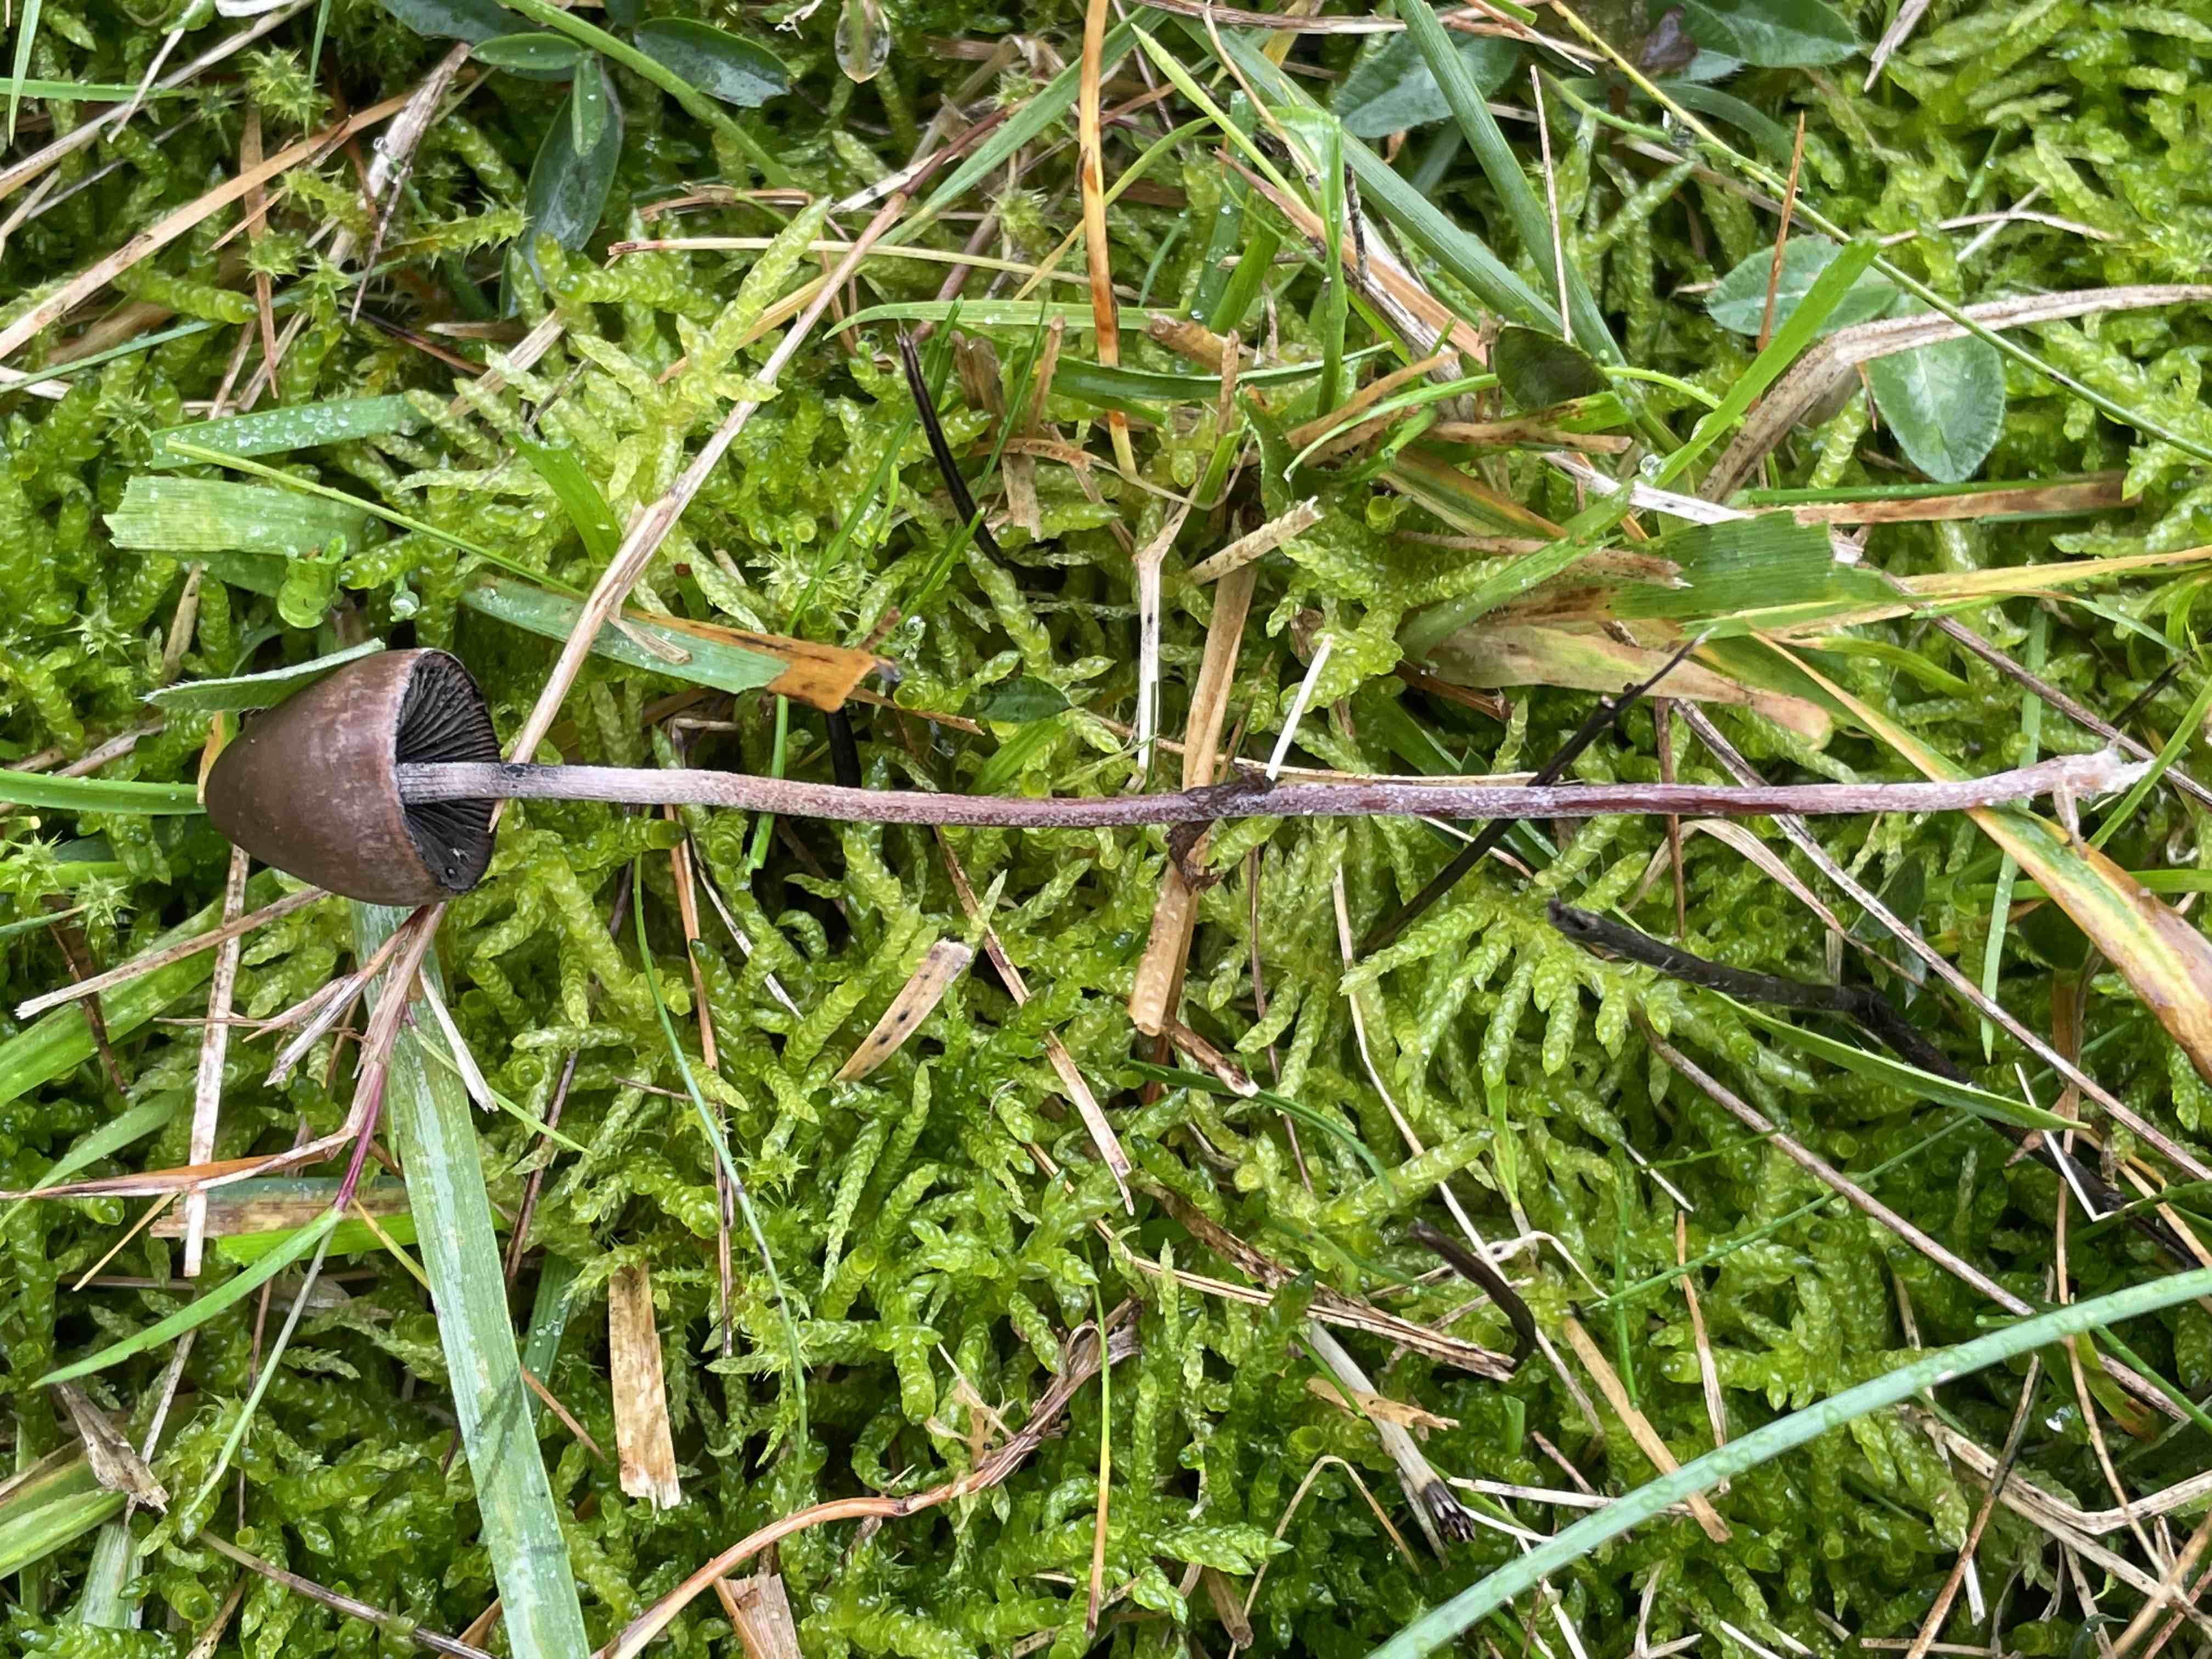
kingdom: Fungi
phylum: Basidiomycota
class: Agaricomycetes
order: Agaricales
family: Bolbitiaceae
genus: Panaeolus
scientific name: Panaeolus acuminatus
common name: høj glanshat
